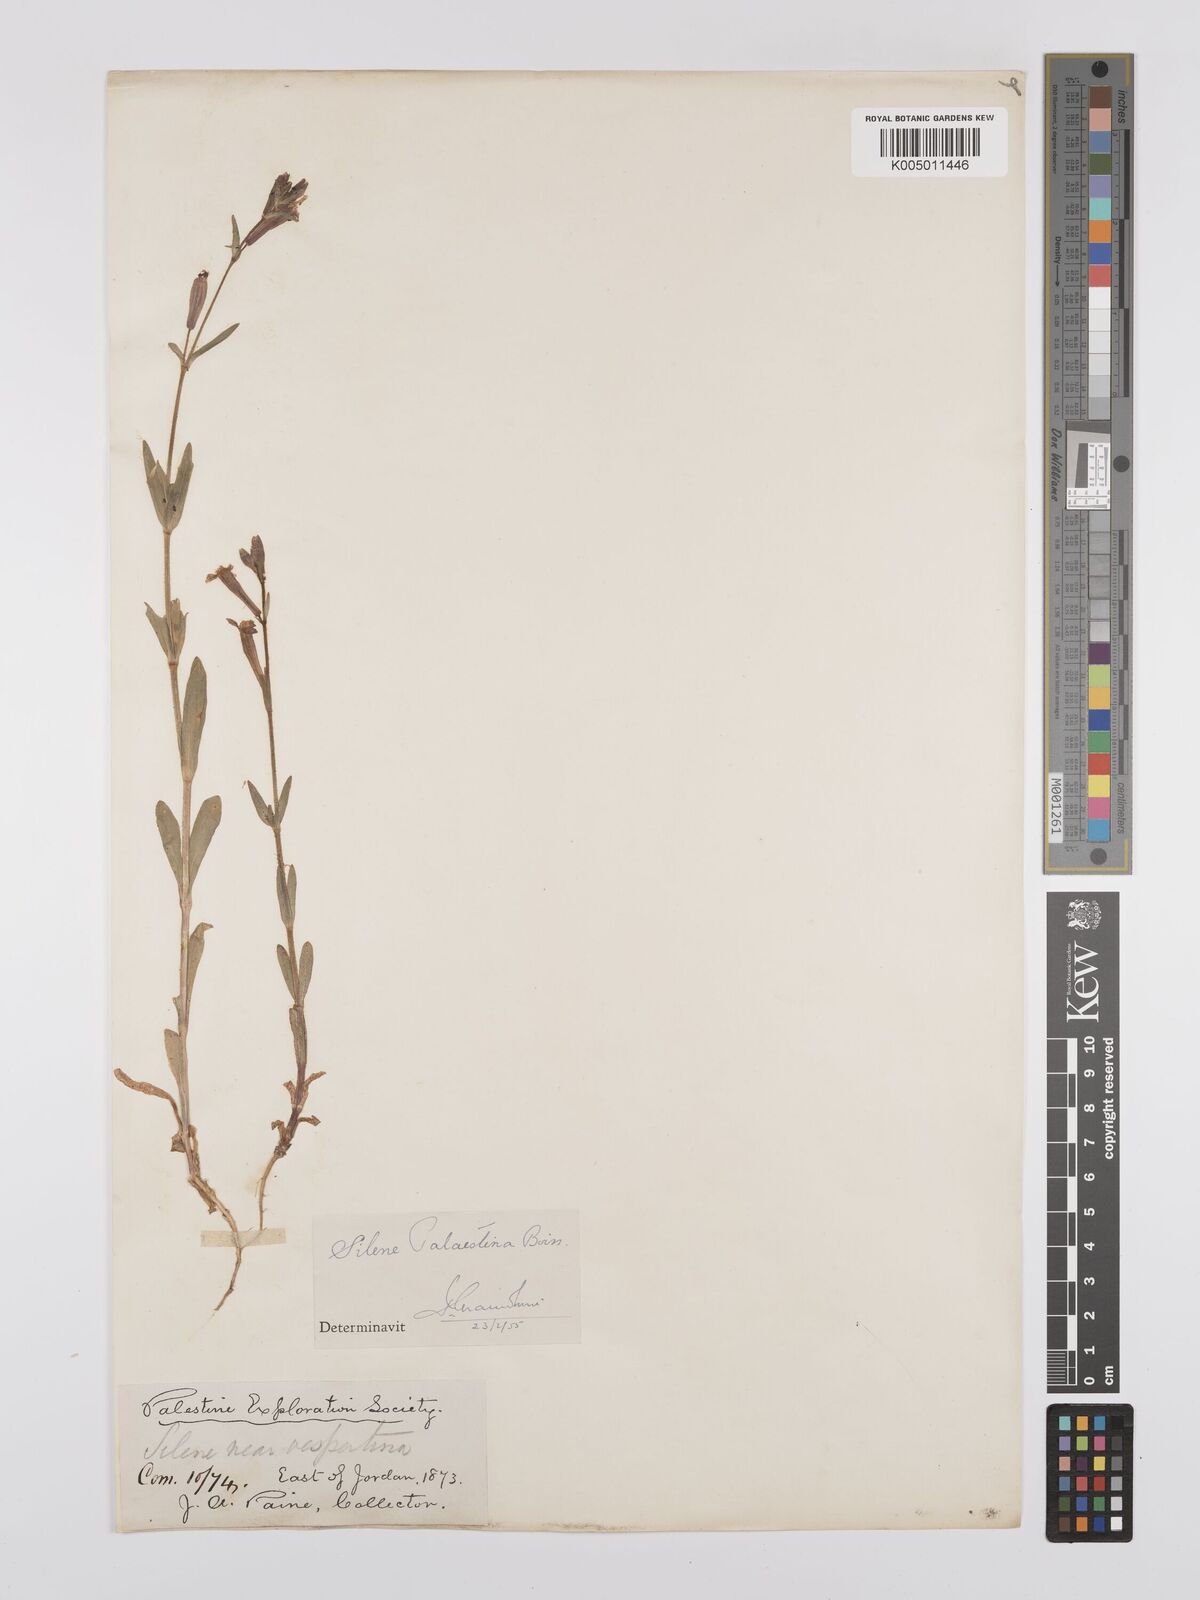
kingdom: Plantae
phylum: Tracheophyta
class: Magnoliopsida
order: Caryophyllales
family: Caryophyllaceae
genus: Silene
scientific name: Silene palaestina
